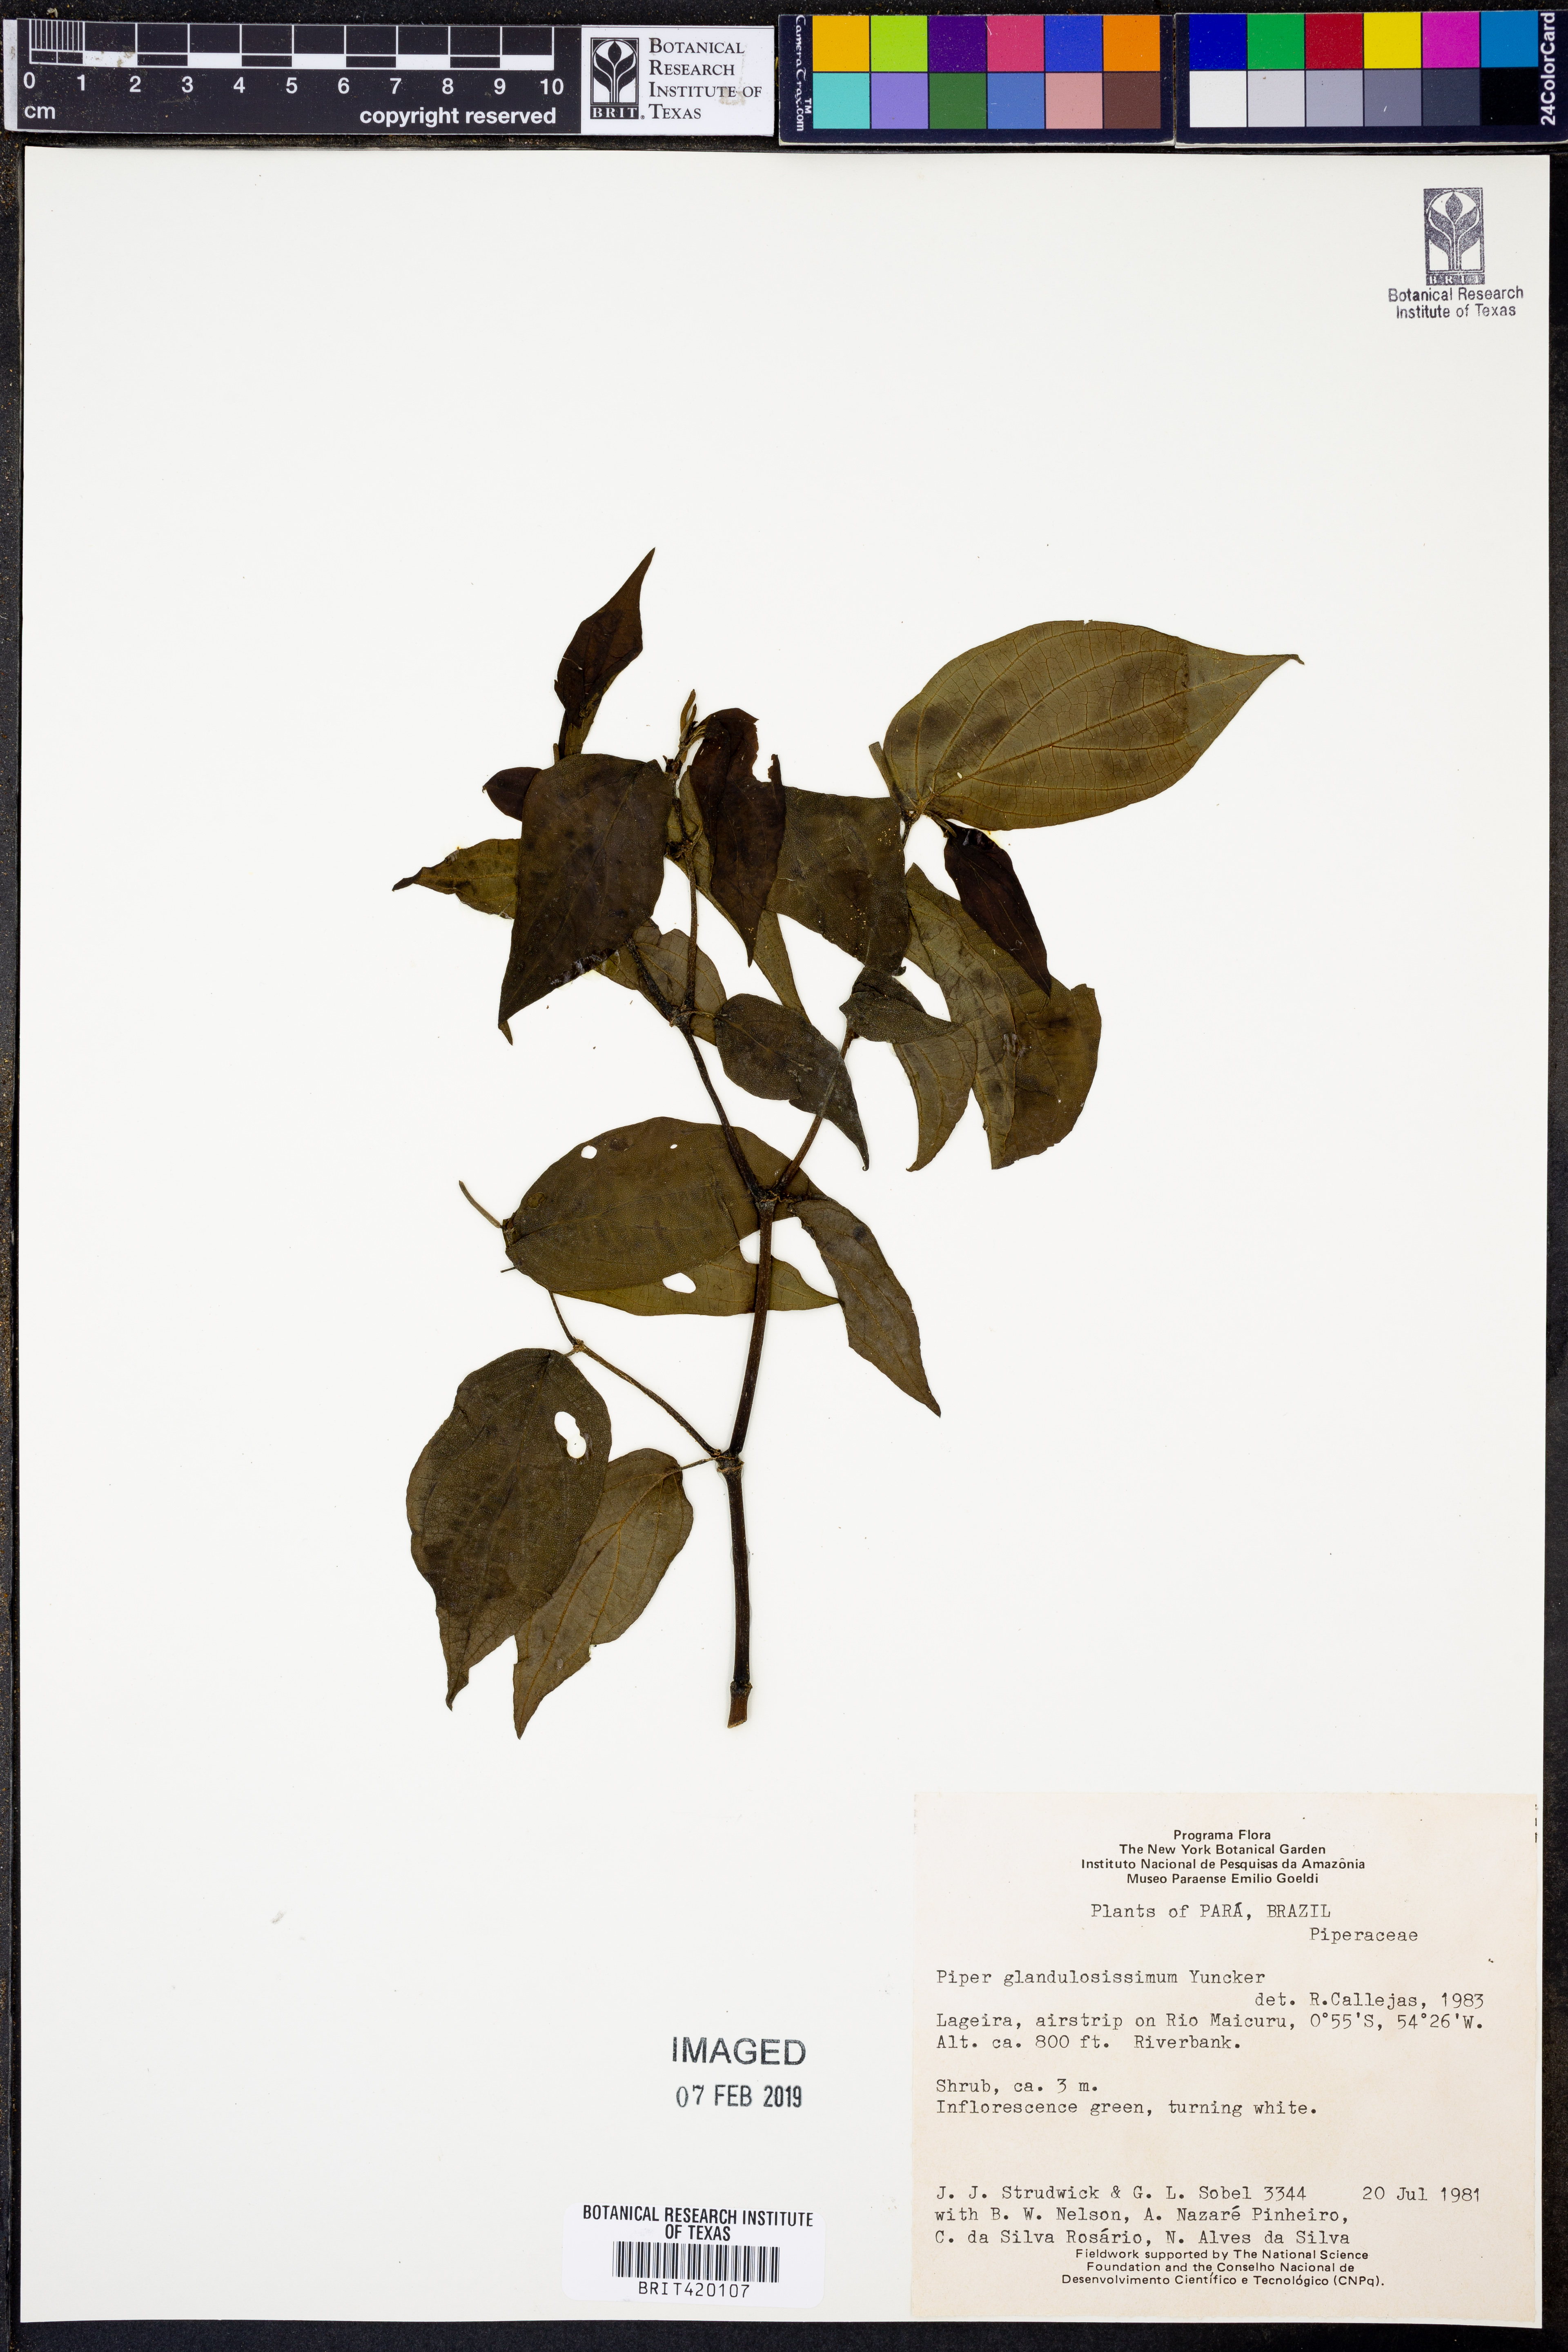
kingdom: Plantae
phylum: Tracheophyta
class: Magnoliopsida
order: Piperales
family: Piperaceae
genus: Piper
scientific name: Piper glandulosissimum
